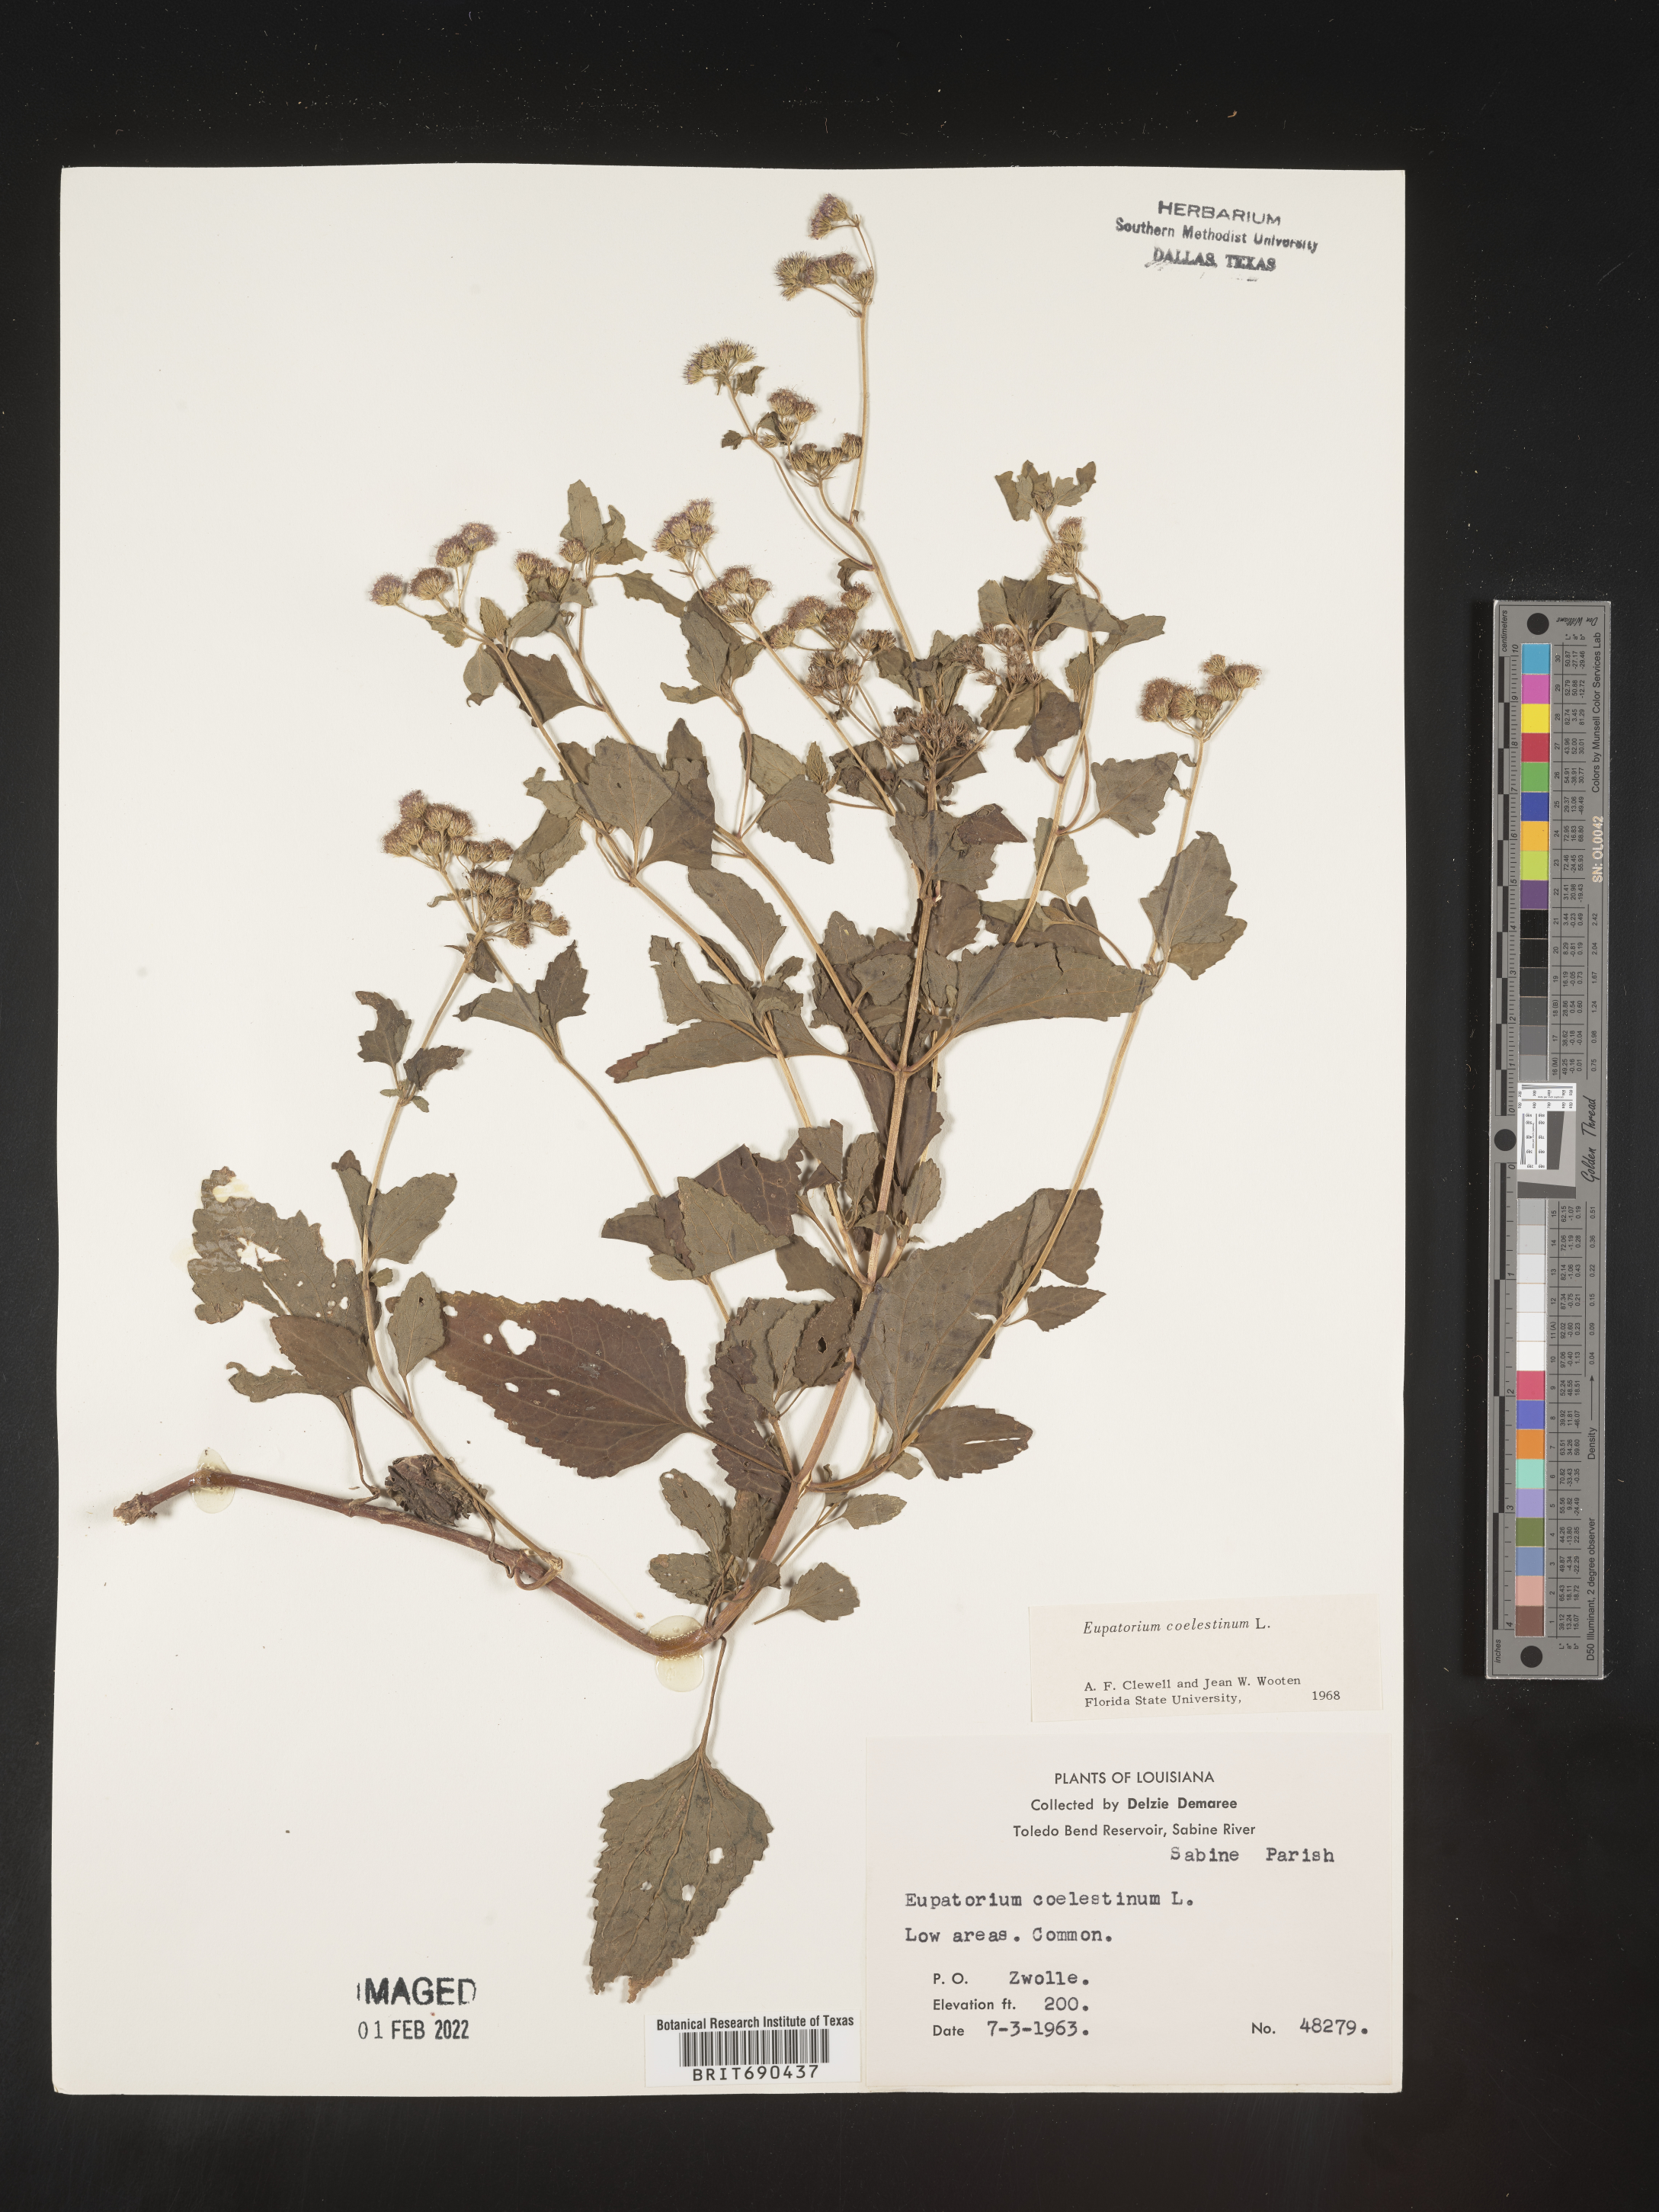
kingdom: Plantae
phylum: Tracheophyta
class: Magnoliopsida
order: Asterales
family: Asteraceae
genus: Conoclinium
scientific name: Conoclinium coelestinum
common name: Blue mistflower
